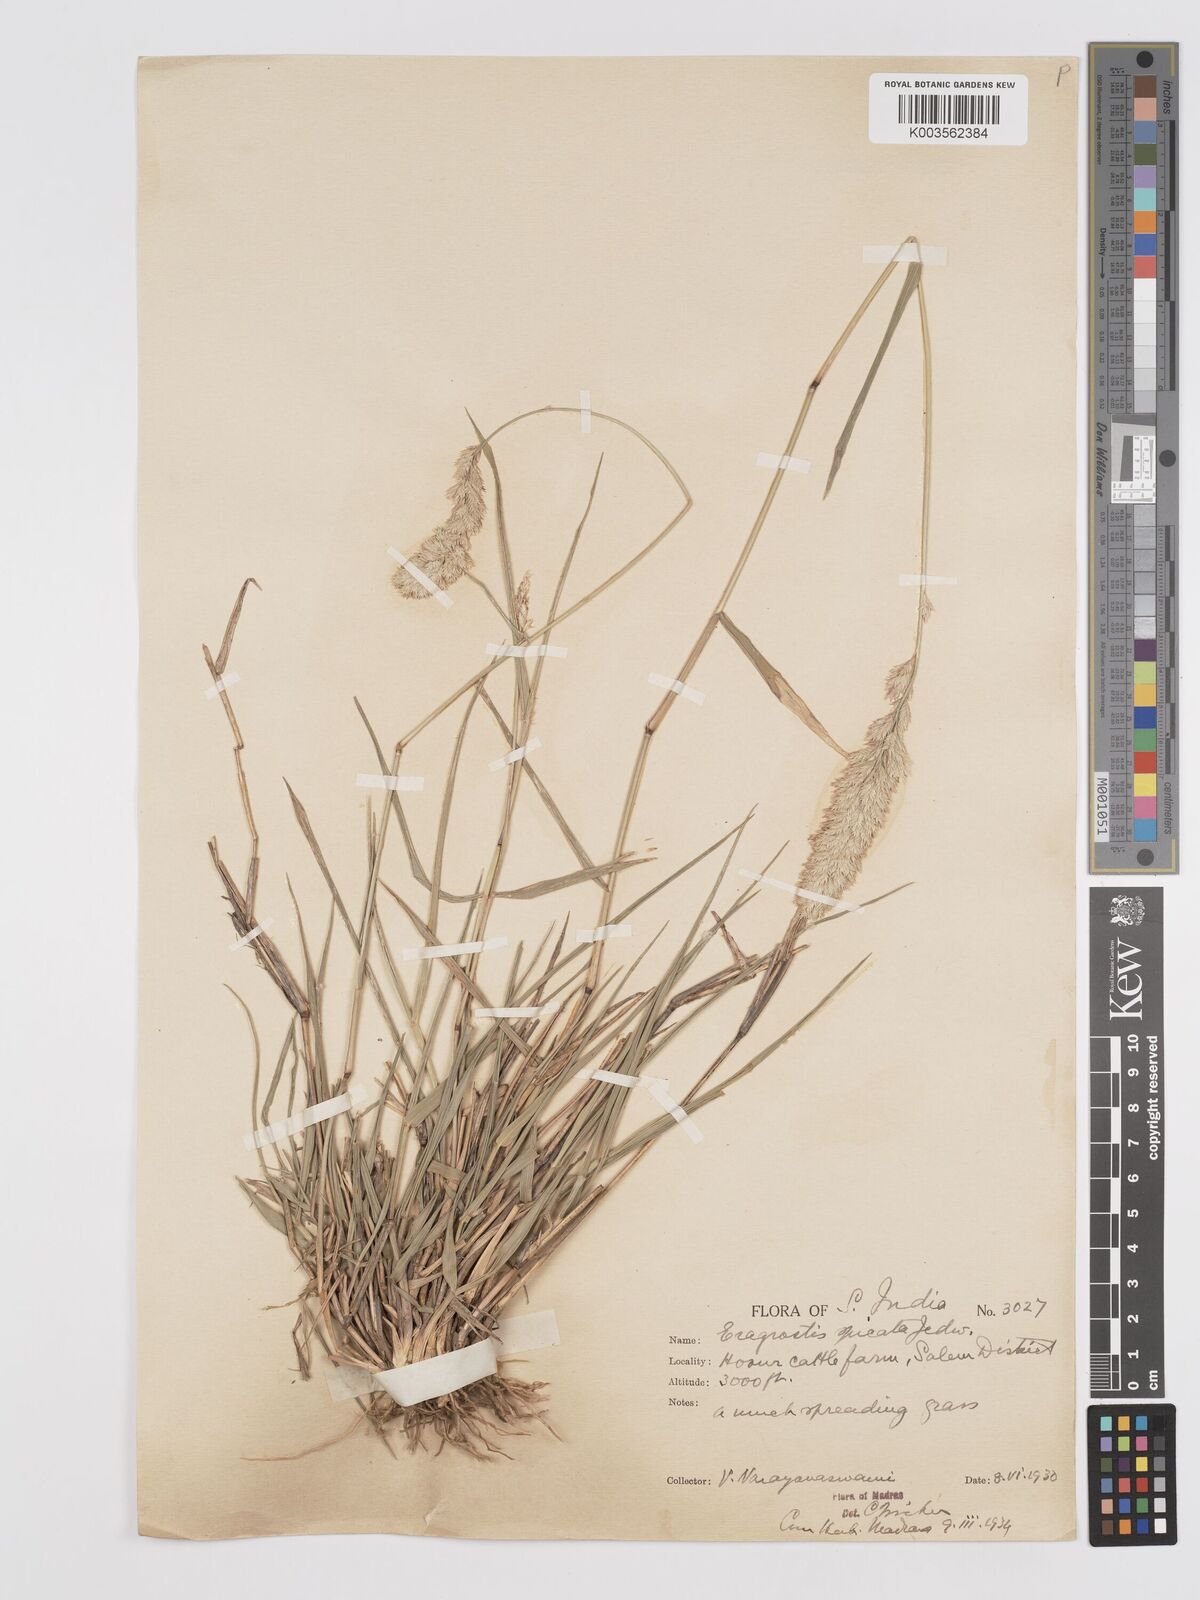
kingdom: Plantae
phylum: Tracheophyta
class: Liliopsida
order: Poales
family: Poaceae
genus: Eragrostis
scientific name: Eragrostis deccanensis
